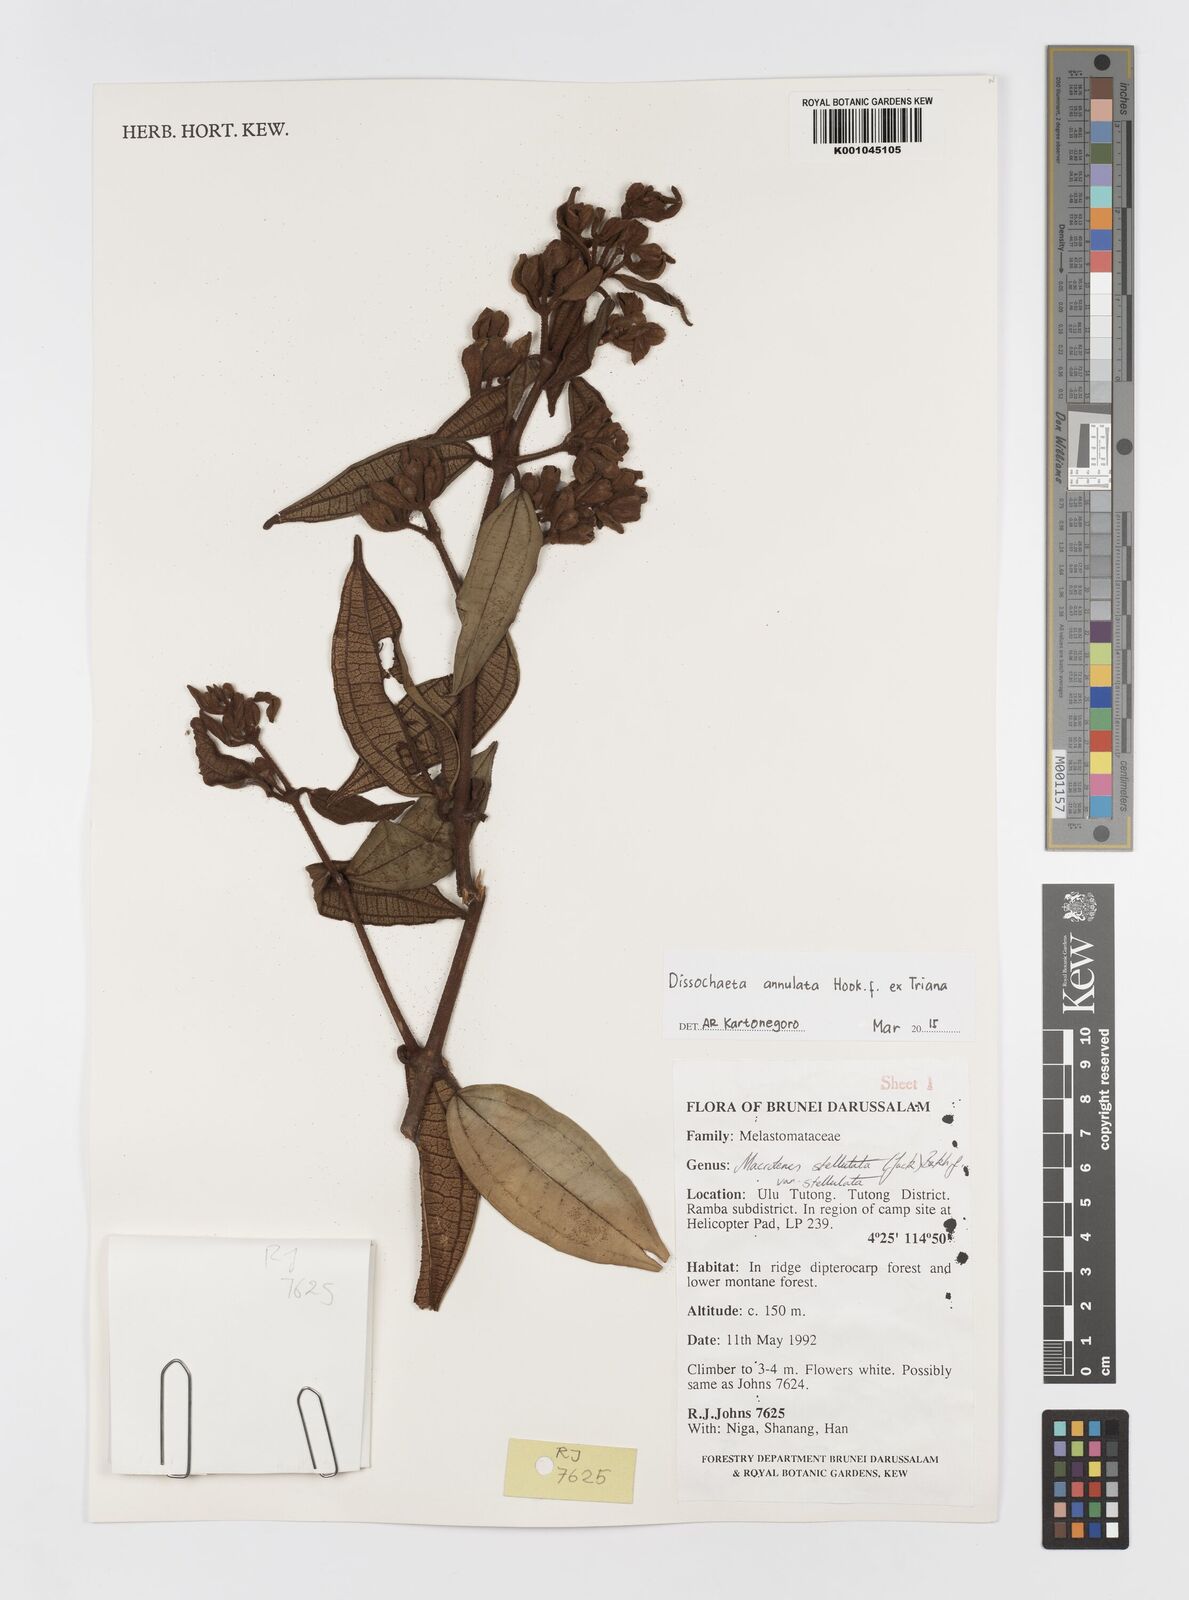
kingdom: Plantae
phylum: Tracheophyta
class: Magnoliopsida
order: Myrtales
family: Melastomataceae
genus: Dissochaeta
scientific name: Dissochaeta annulata
